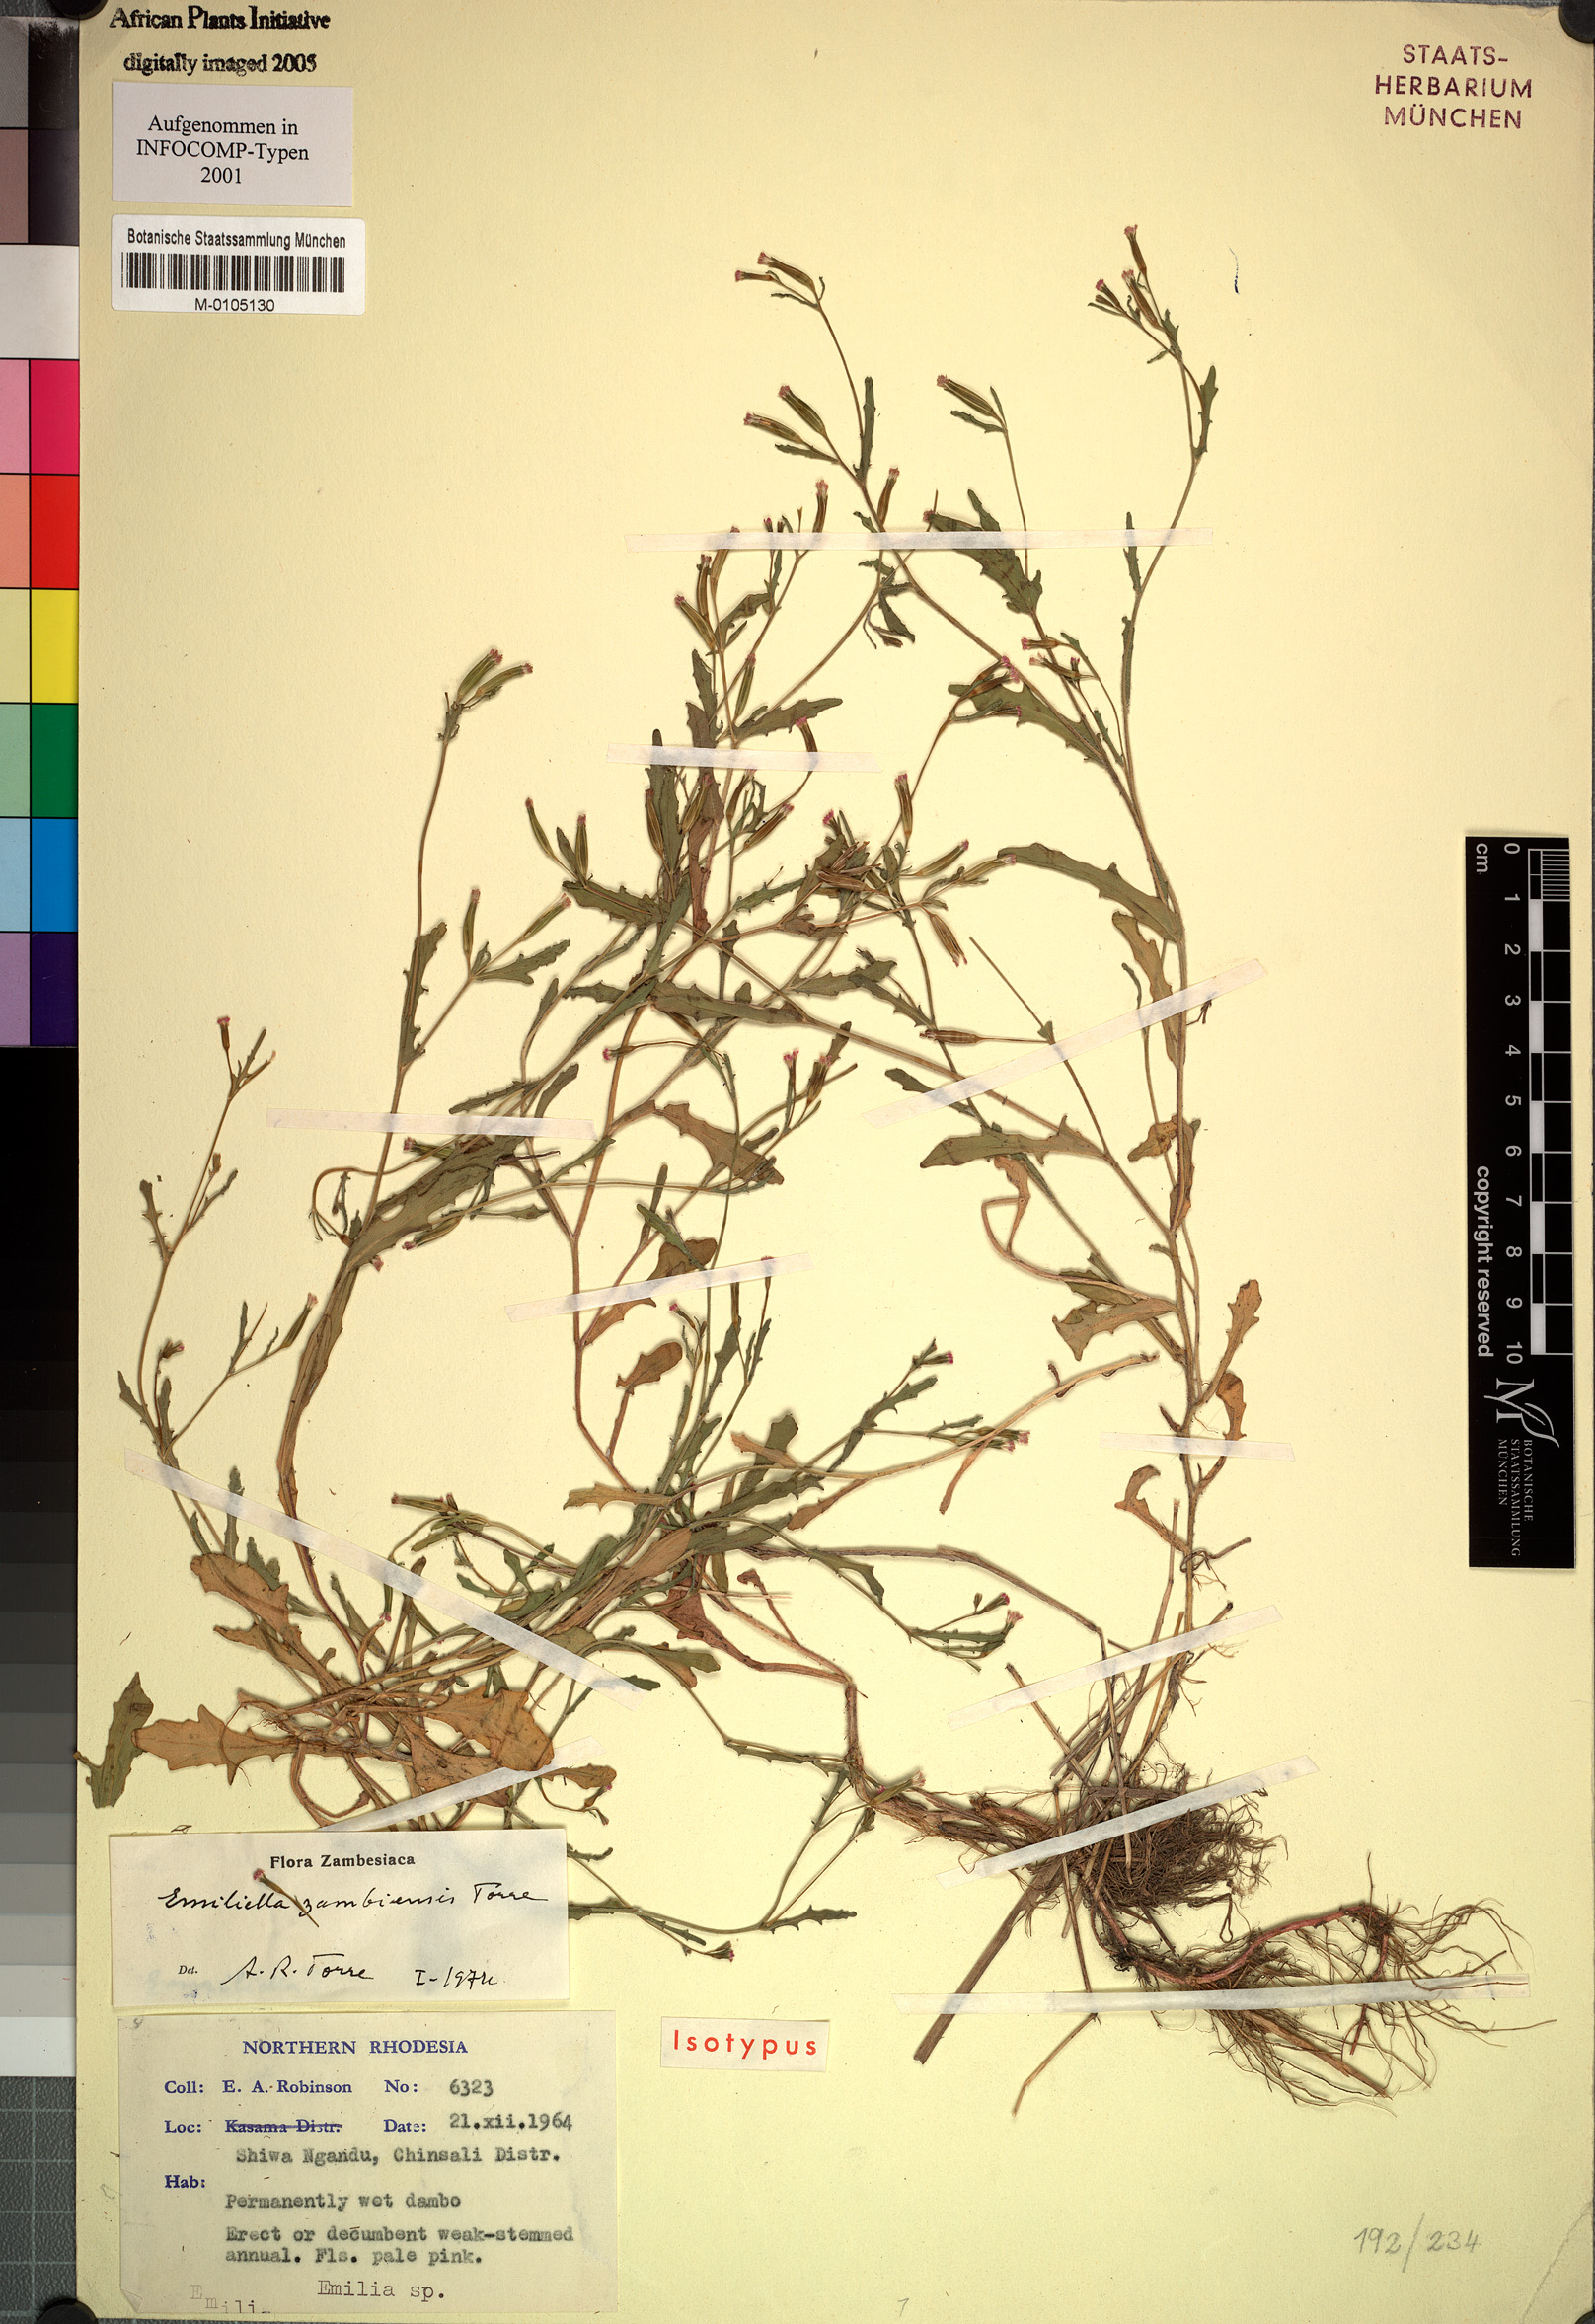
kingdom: Plantae
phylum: Tracheophyta
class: Magnoliopsida
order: Asterales
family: Asteraceae
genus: Emilia
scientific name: Emilia zambiensis
